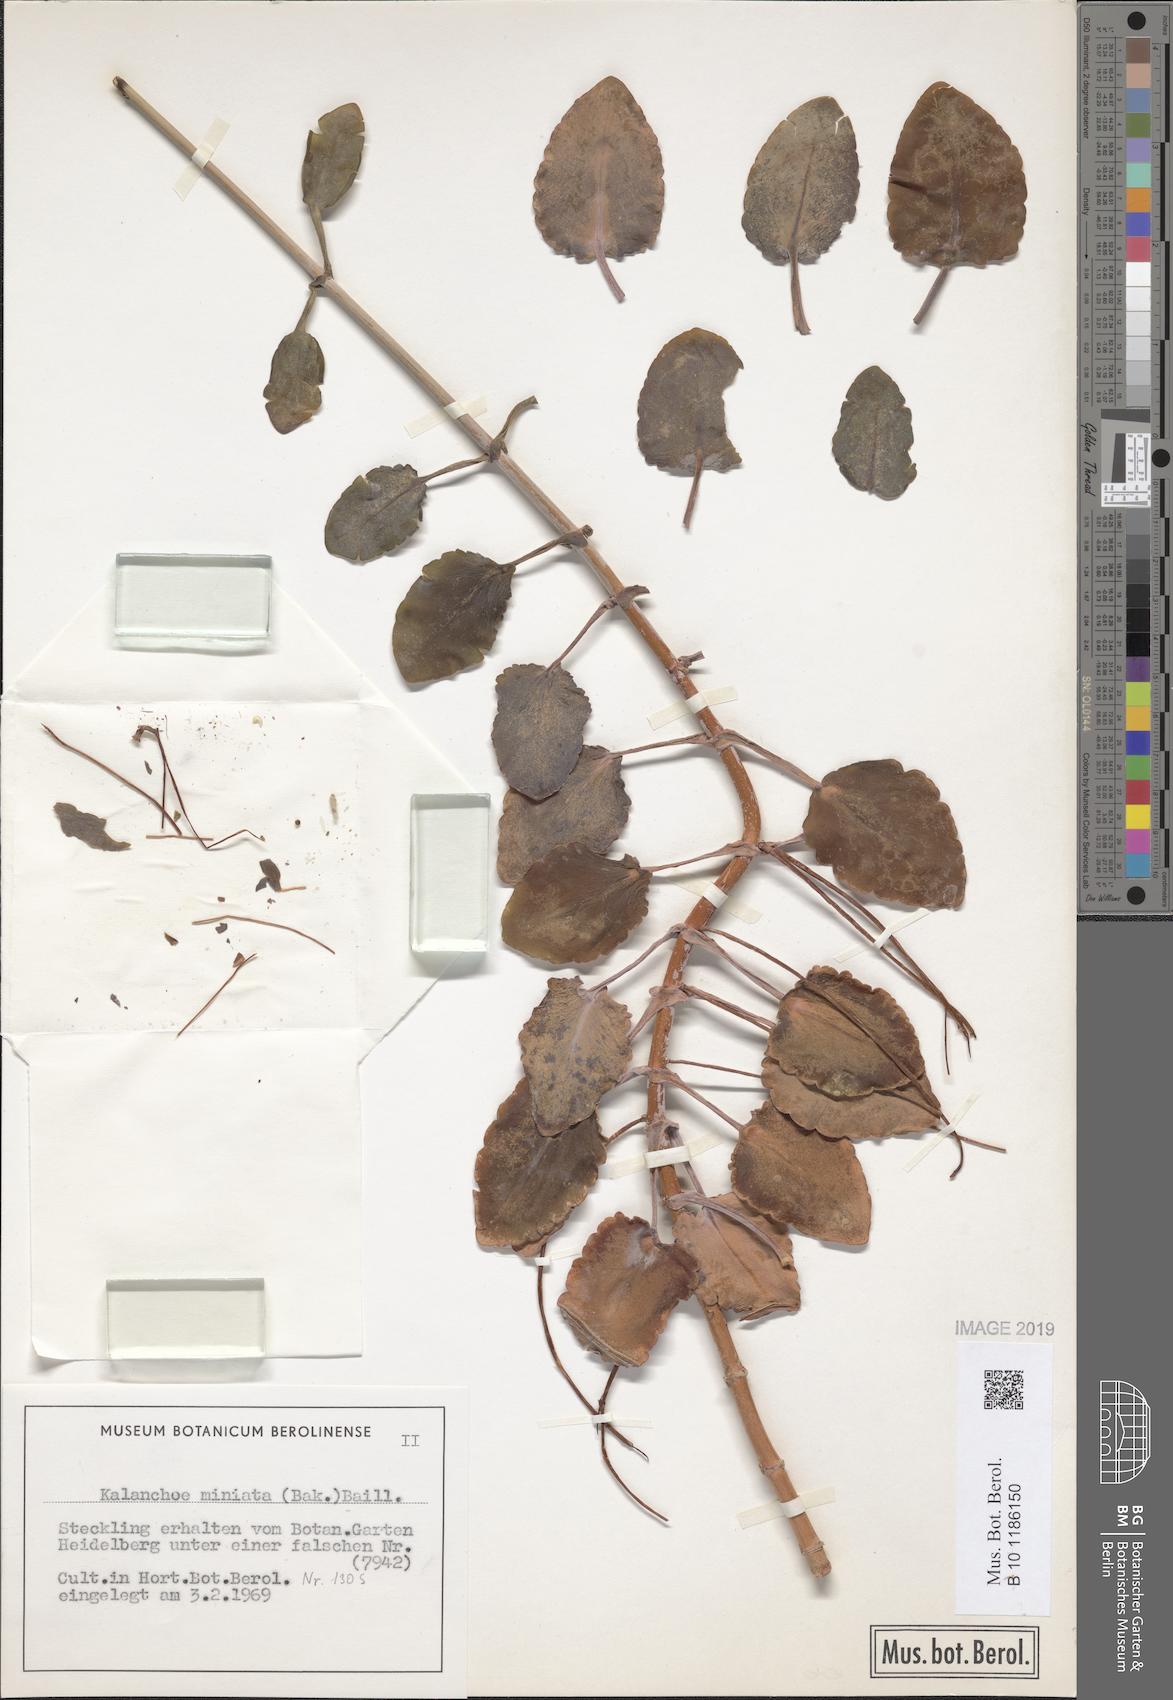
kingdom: Plantae
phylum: Tracheophyta
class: Magnoliopsida
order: Saxifragales
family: Crassulaceae
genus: Kalanchoe
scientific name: Kalanchoe miniata
